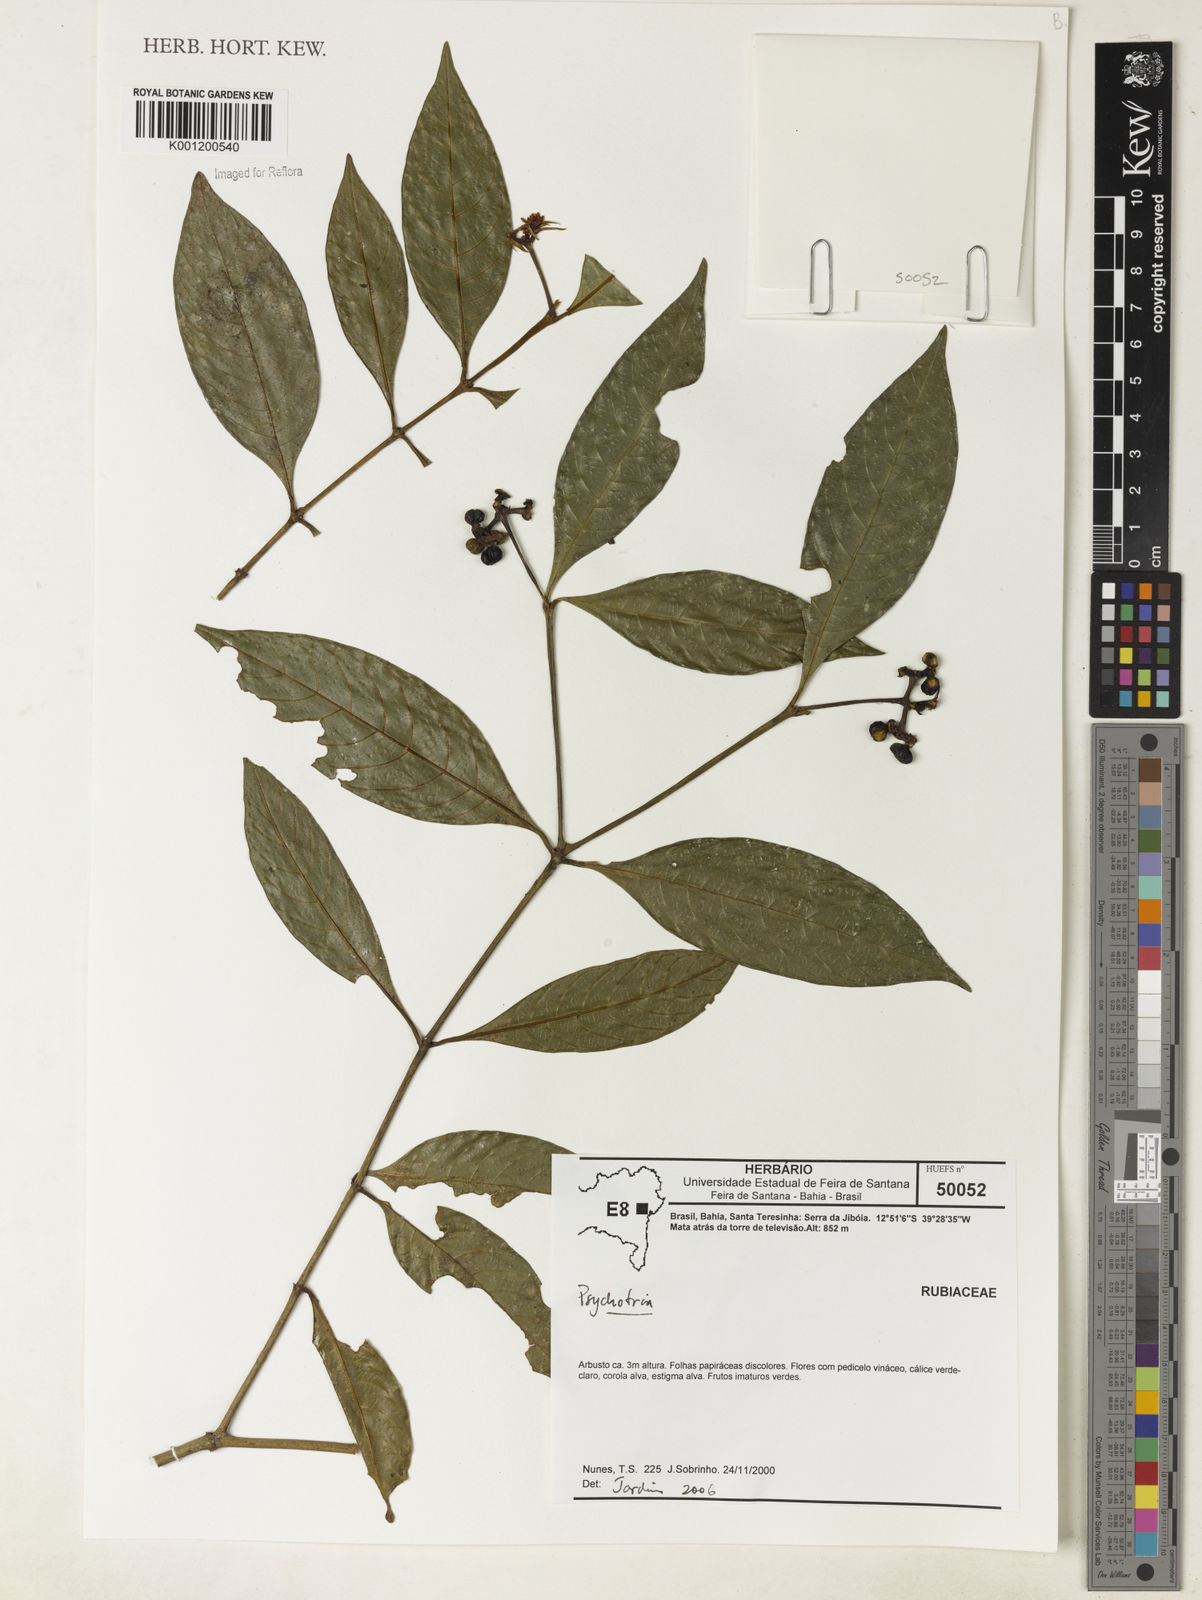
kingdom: Plantae
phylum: Tracheophyta
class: Magnoliopsida
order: Gentianales
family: Rubiaceae
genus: Psychotria
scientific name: Psychotria
